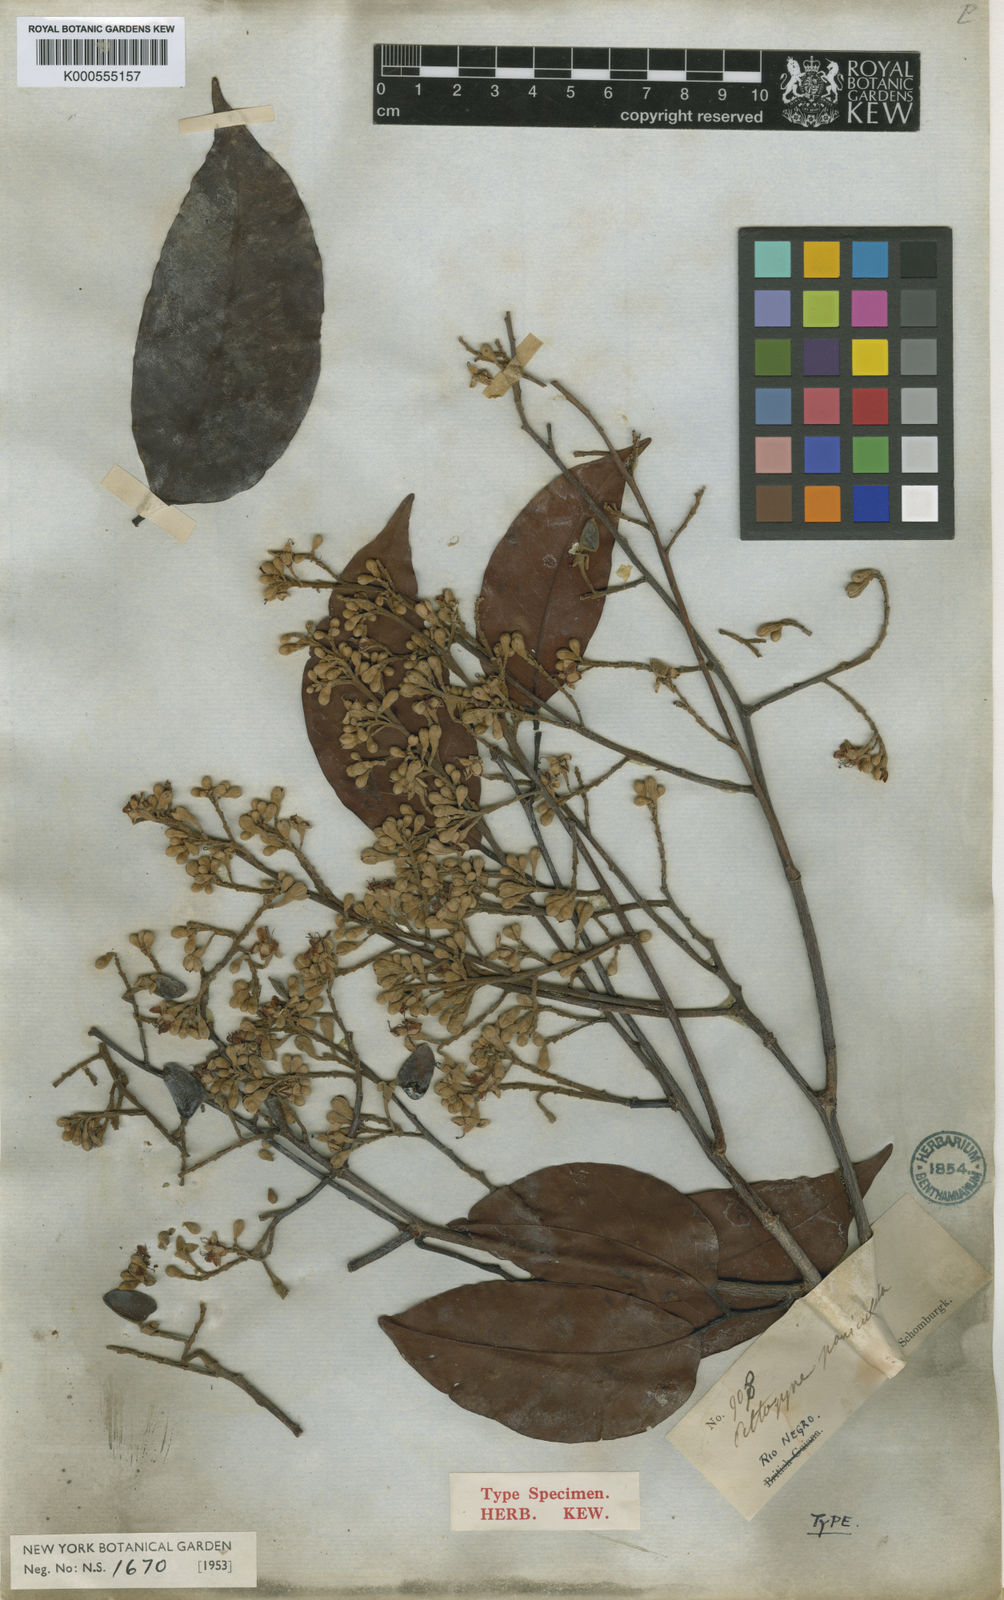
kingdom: Plantae
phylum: Tracheophyta
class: Magnoliopsida
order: Fabales
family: Fabaceae
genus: Peltogyne
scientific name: Peltogyne paniculata
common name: Purpleheart
